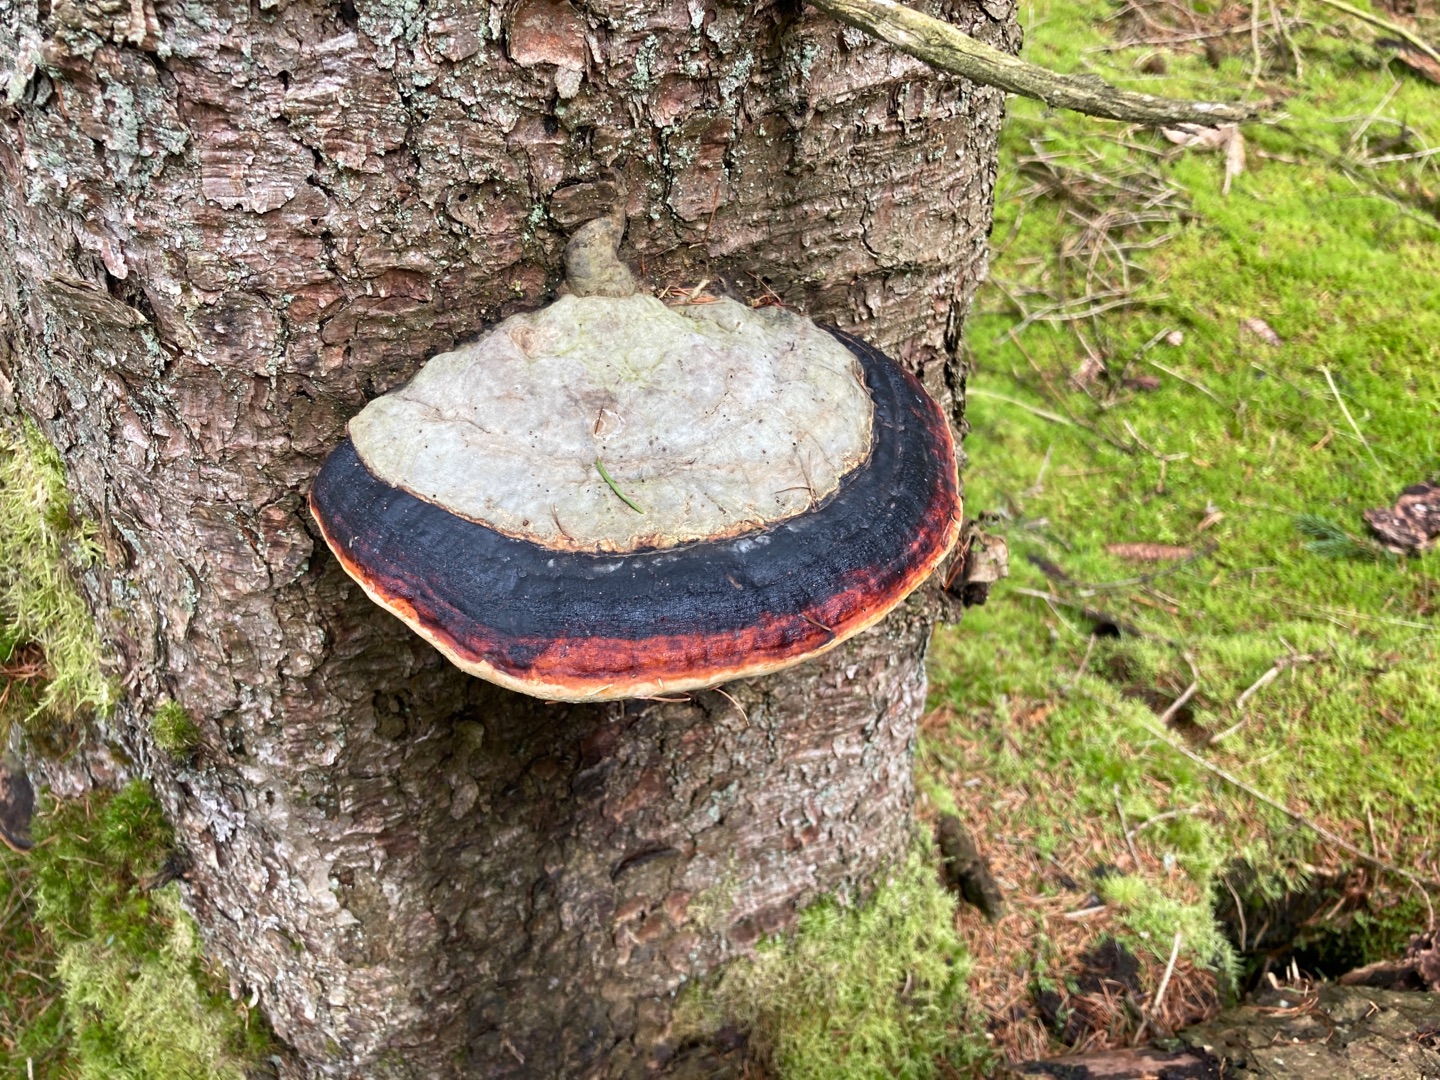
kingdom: Fungi
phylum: Basidiomycota
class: Agaricomycetes
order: Polyporales
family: Fomitopsidaceae
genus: Fomitopsis
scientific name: Fomitopsis pinicola
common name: Randbæltet hovporesvamp
